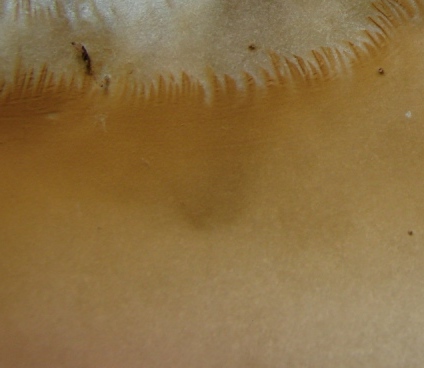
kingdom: Fungi
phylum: Basidiomycota
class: Agaricomycetes
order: Boletales
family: Paxillaceae
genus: Paxillus
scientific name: Paxillus ammoniavirescens
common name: olivensporet netbladhat
